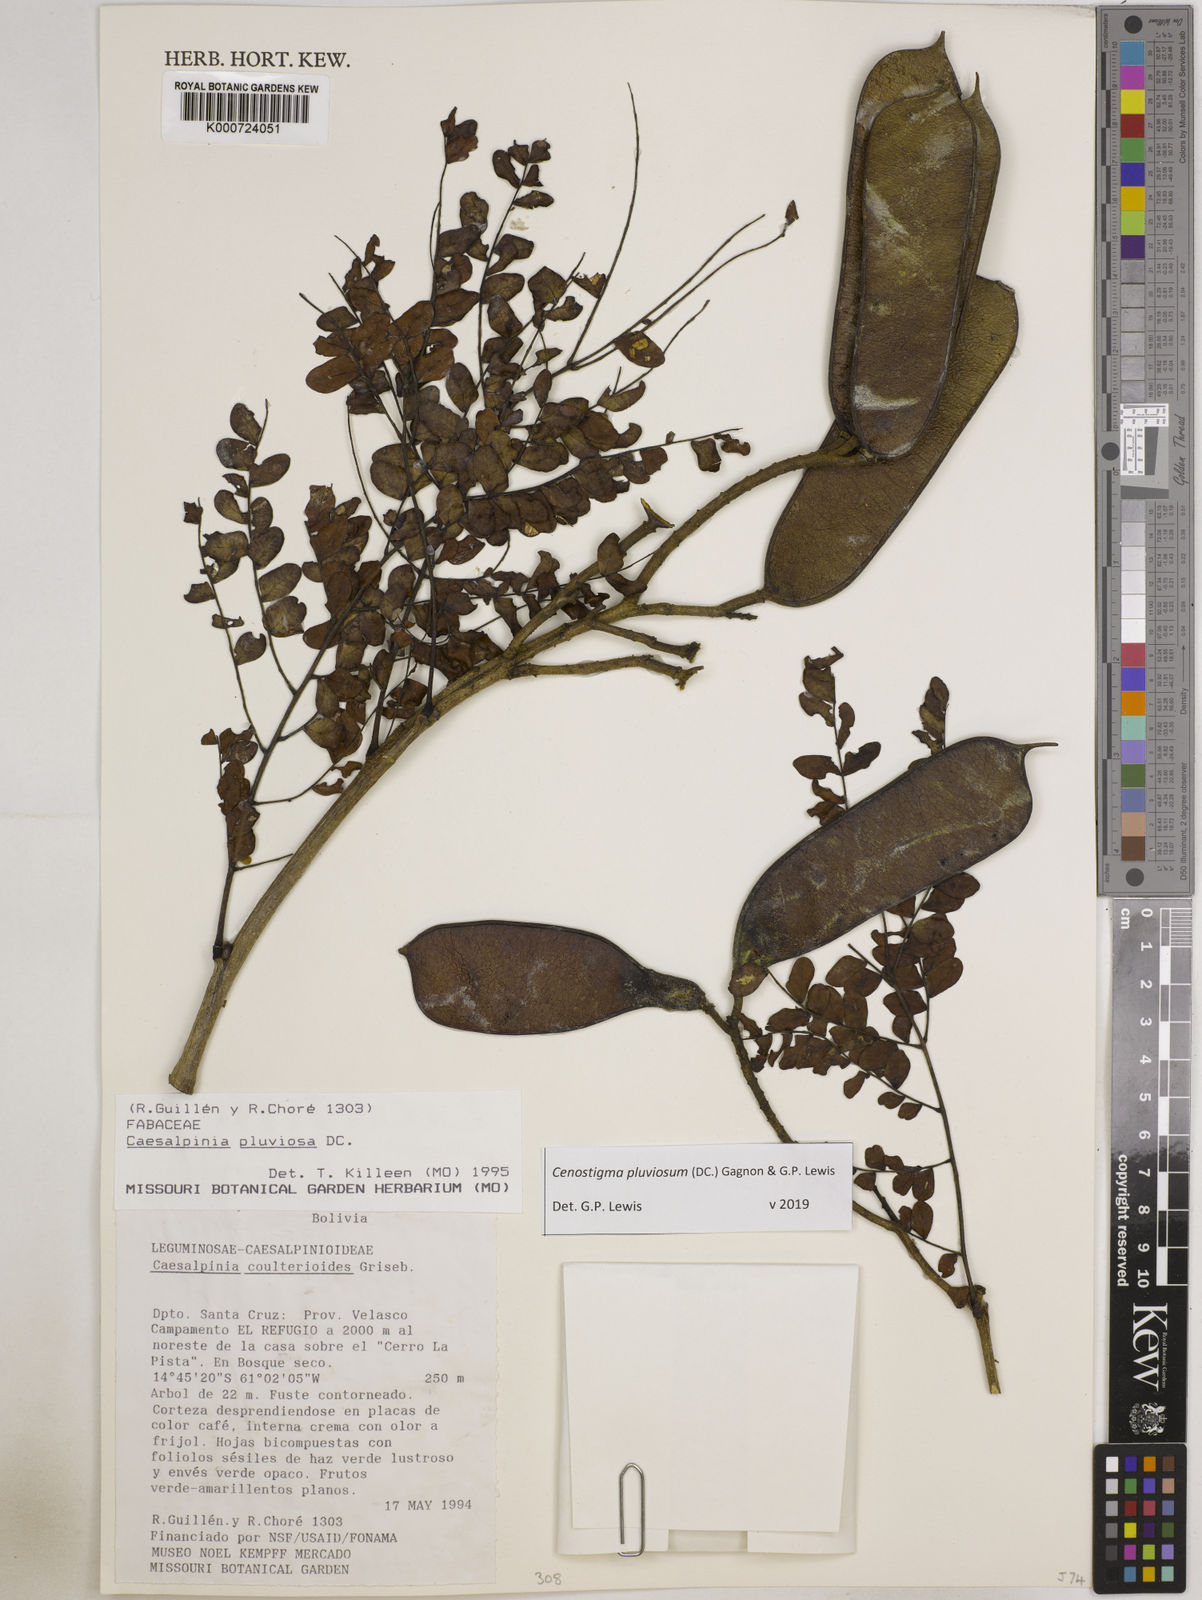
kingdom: Plantae
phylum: Tracheophyta
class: Magnoliopsida
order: Fabales
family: Fabaceae
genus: Cenostigma
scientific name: Cenostigma pluviosum
